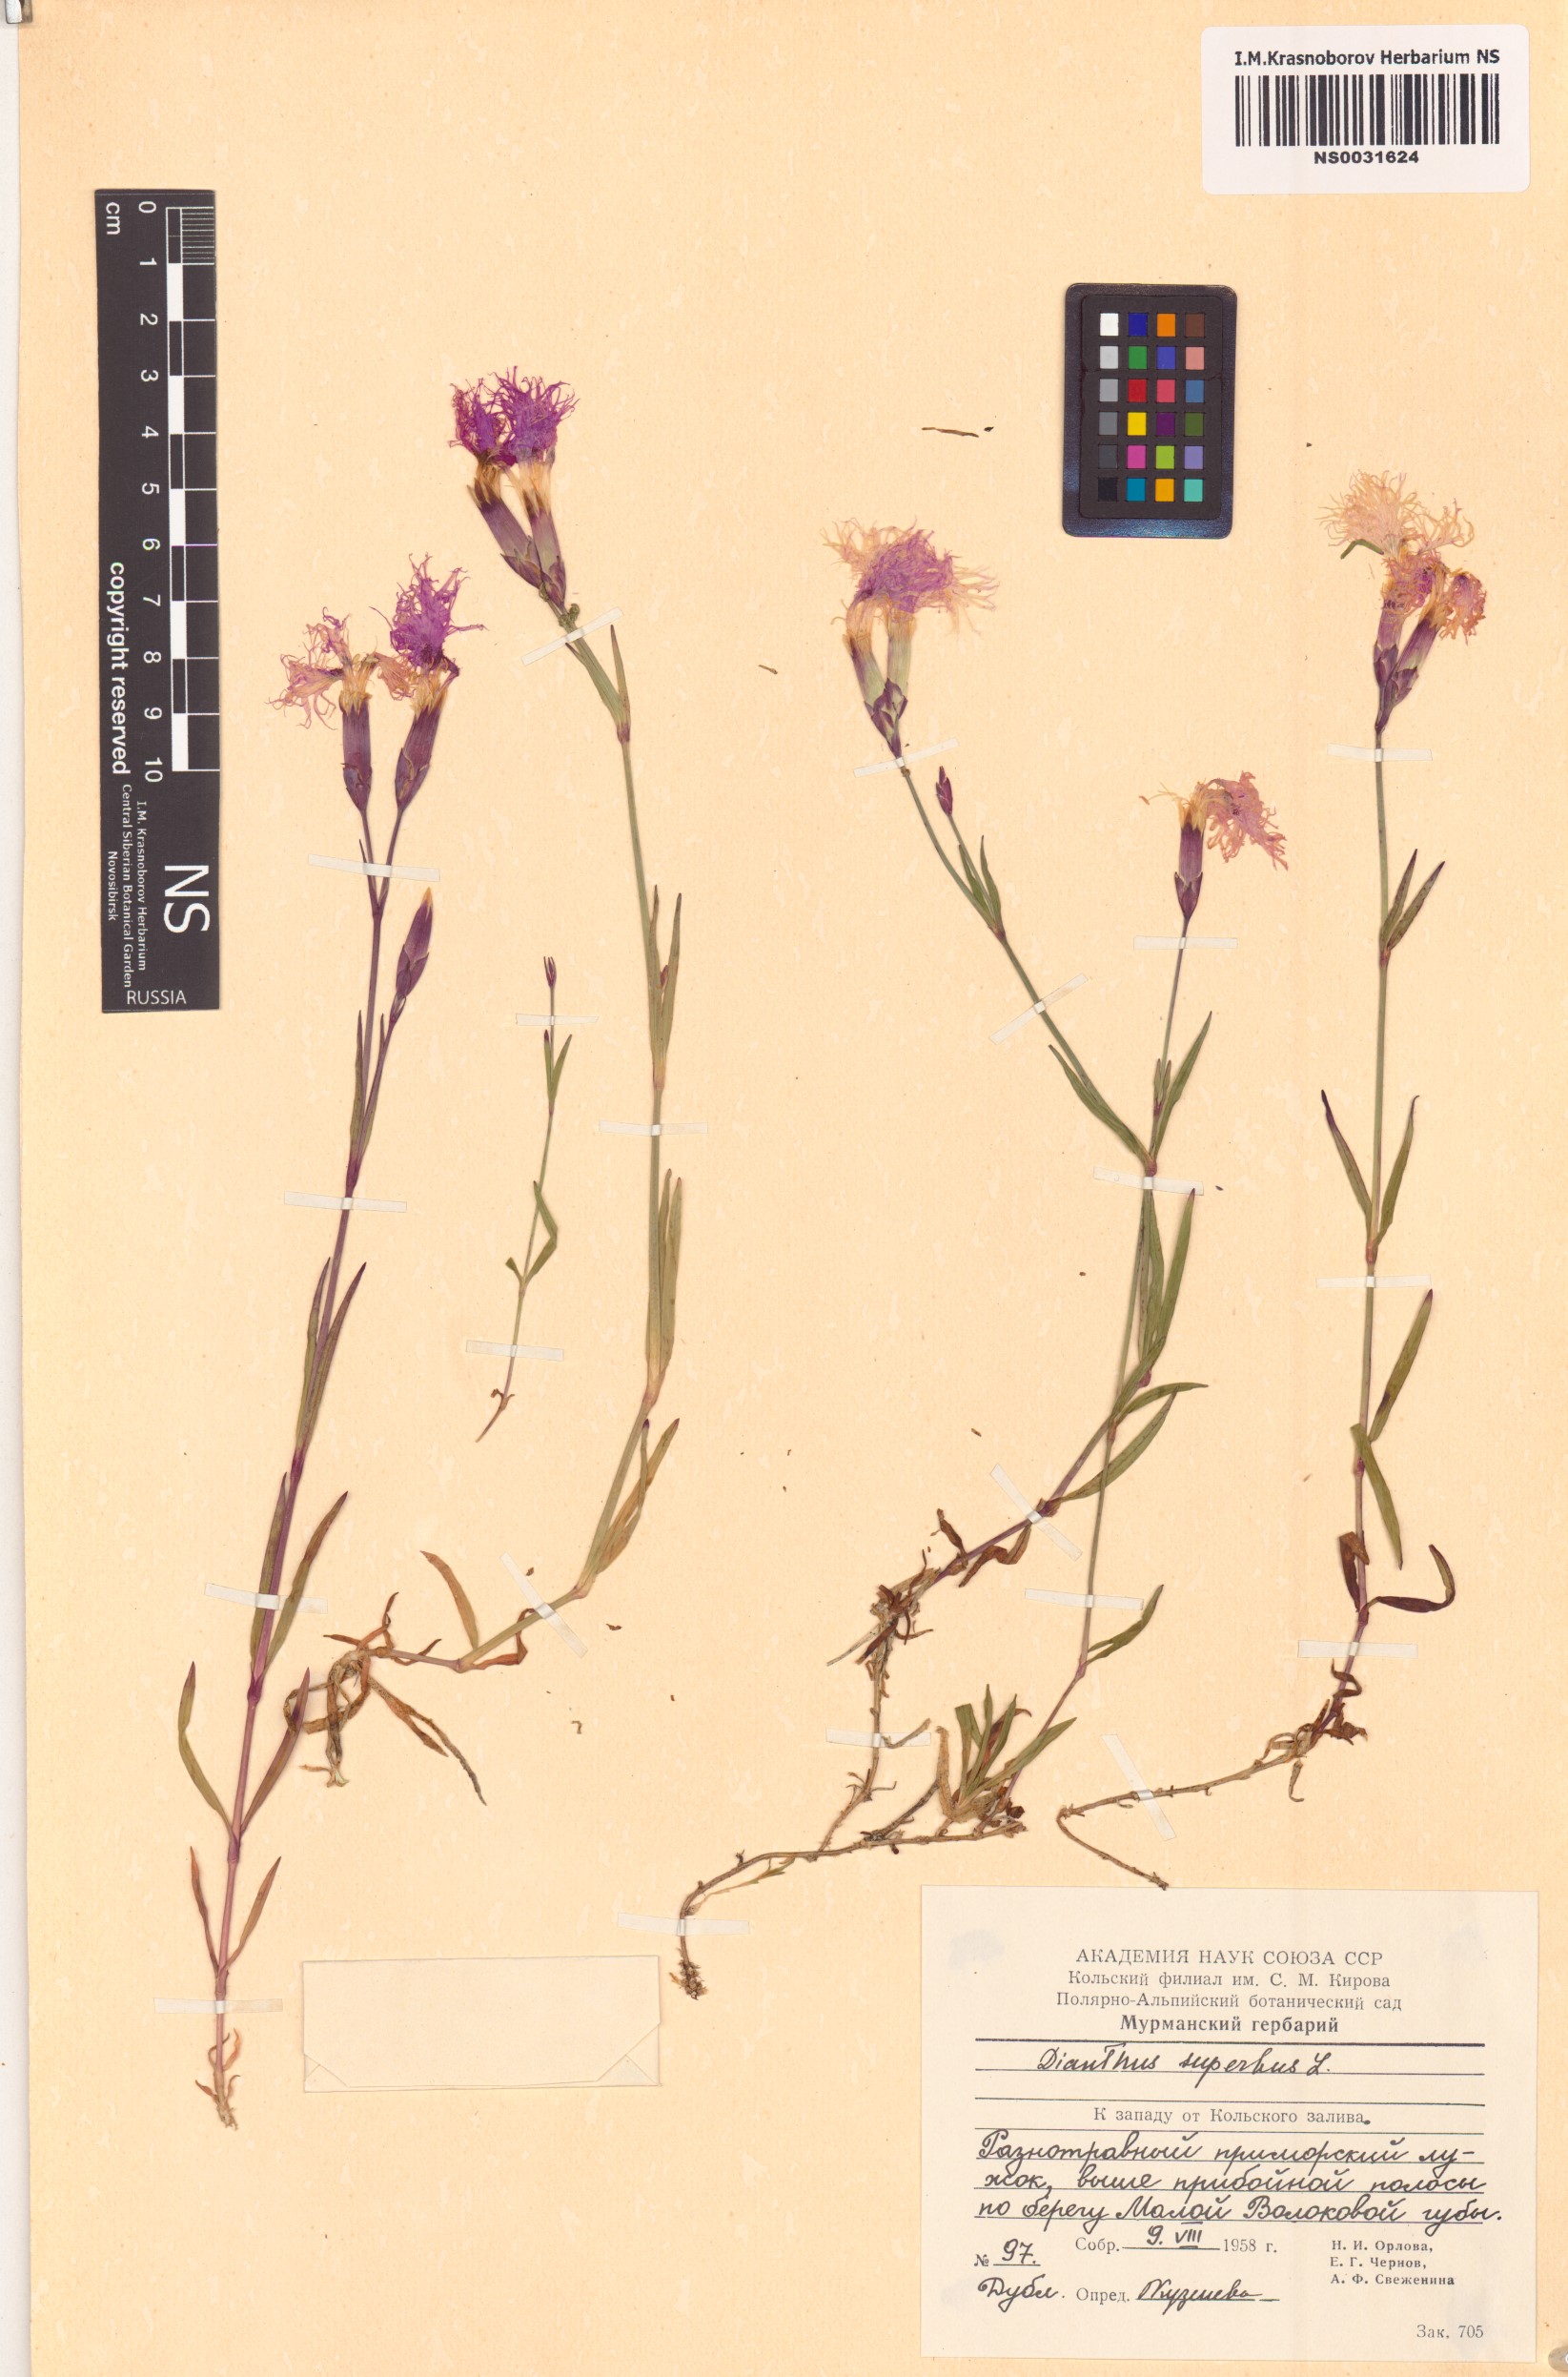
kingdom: Plantae
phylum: Tracheophyta
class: Magnoliopsida
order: Caryophyllales
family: Caryophyllaceae
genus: Dianthus
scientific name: Dianthus superbus
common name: Fringed pink
